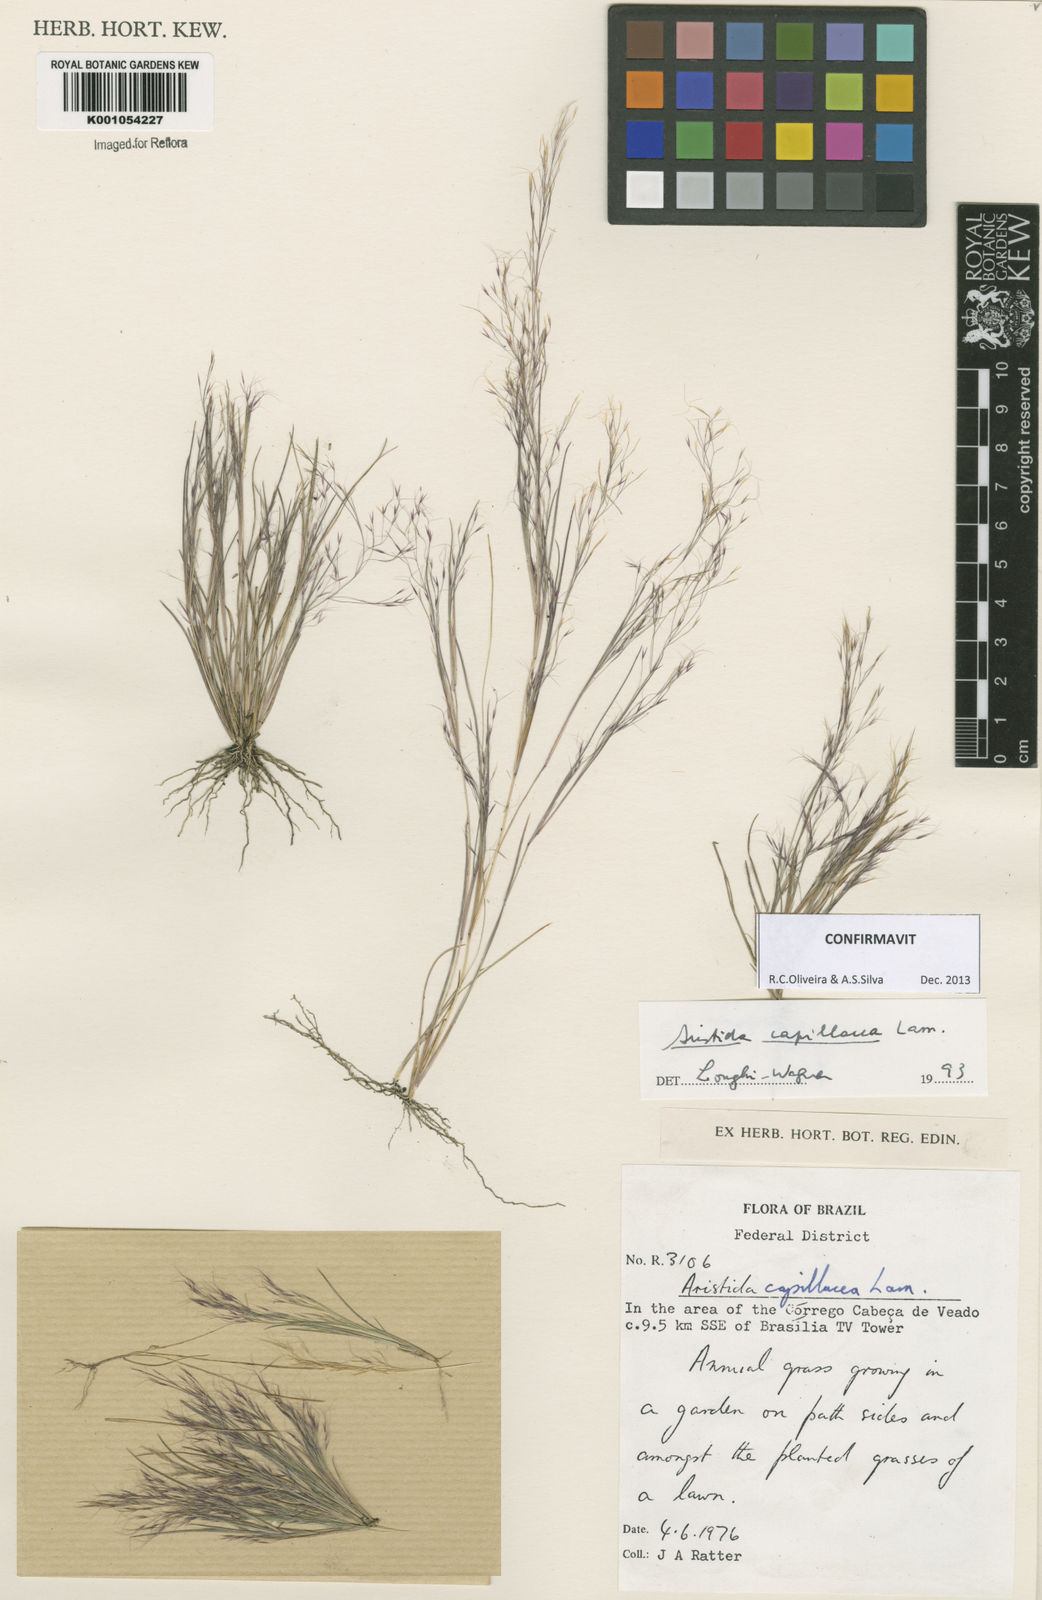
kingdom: Plantae
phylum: Tracheophyta
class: Liliopsida
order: Poales
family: Poaceae
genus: Aristida
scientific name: Aristida capillacea
